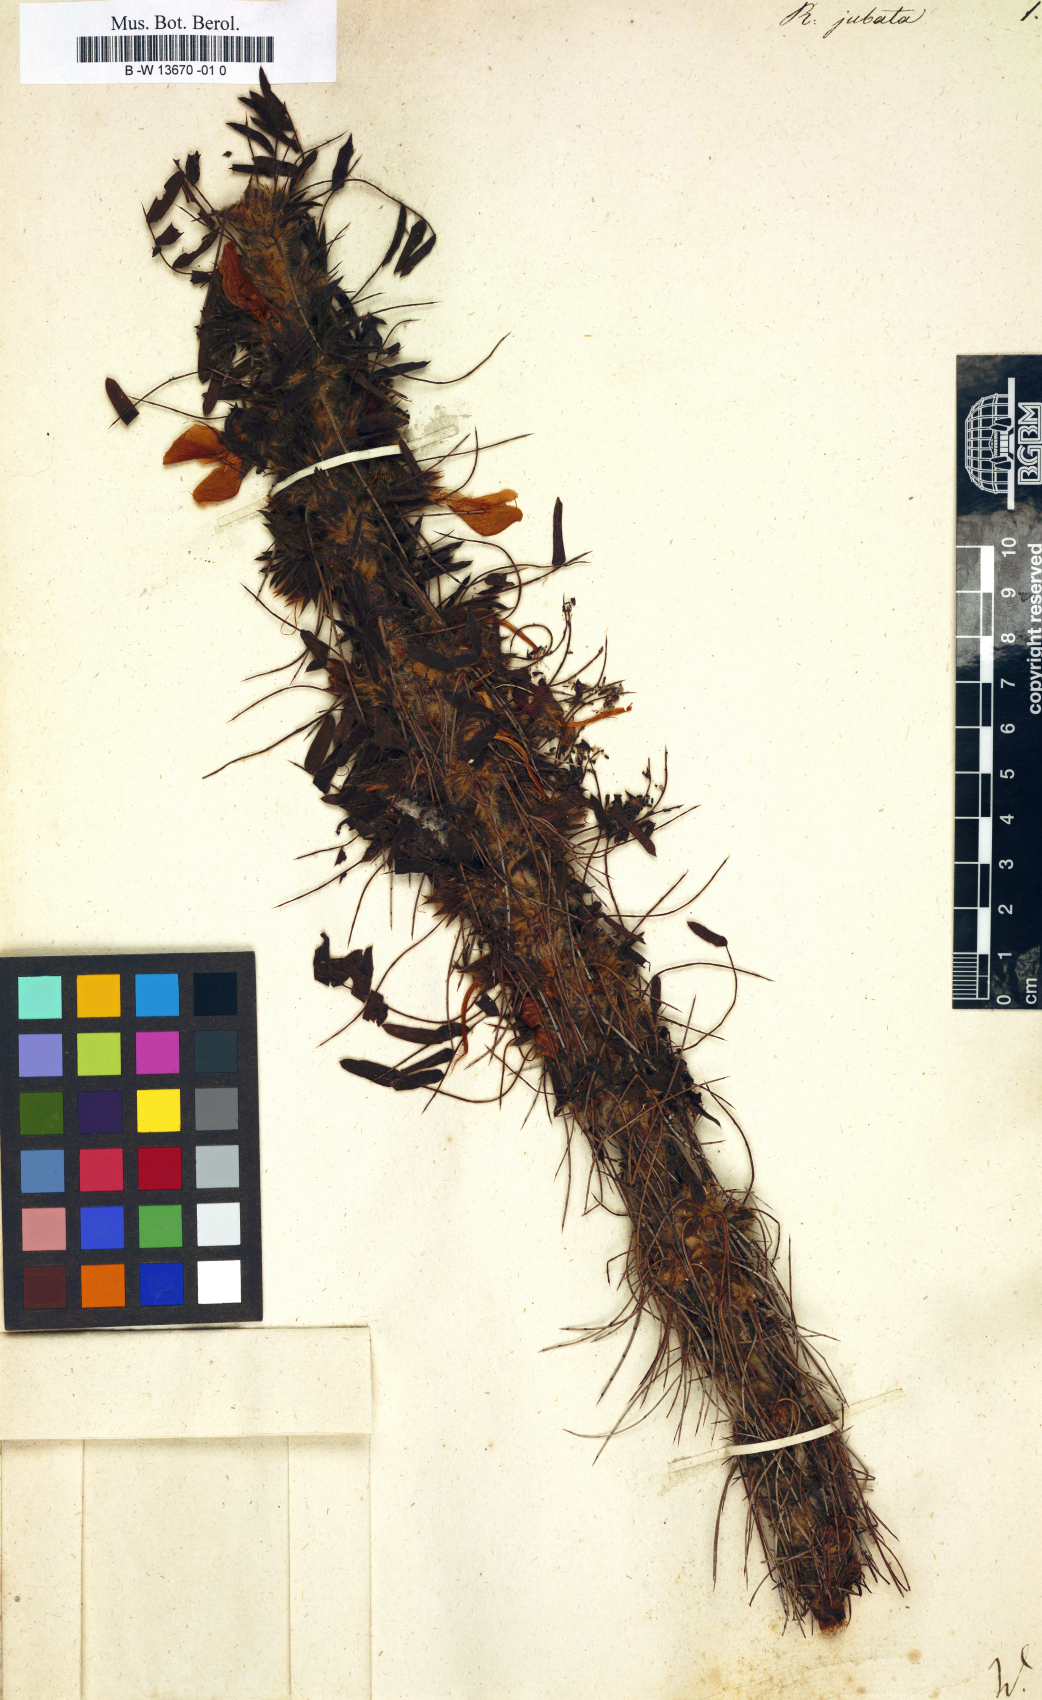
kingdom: Plantae
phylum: Tracheophyta
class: Magnoliopsida
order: Fabales
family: Fabaceae
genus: Caragana
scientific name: Caragana jubata
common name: Shag-spine peashrub
